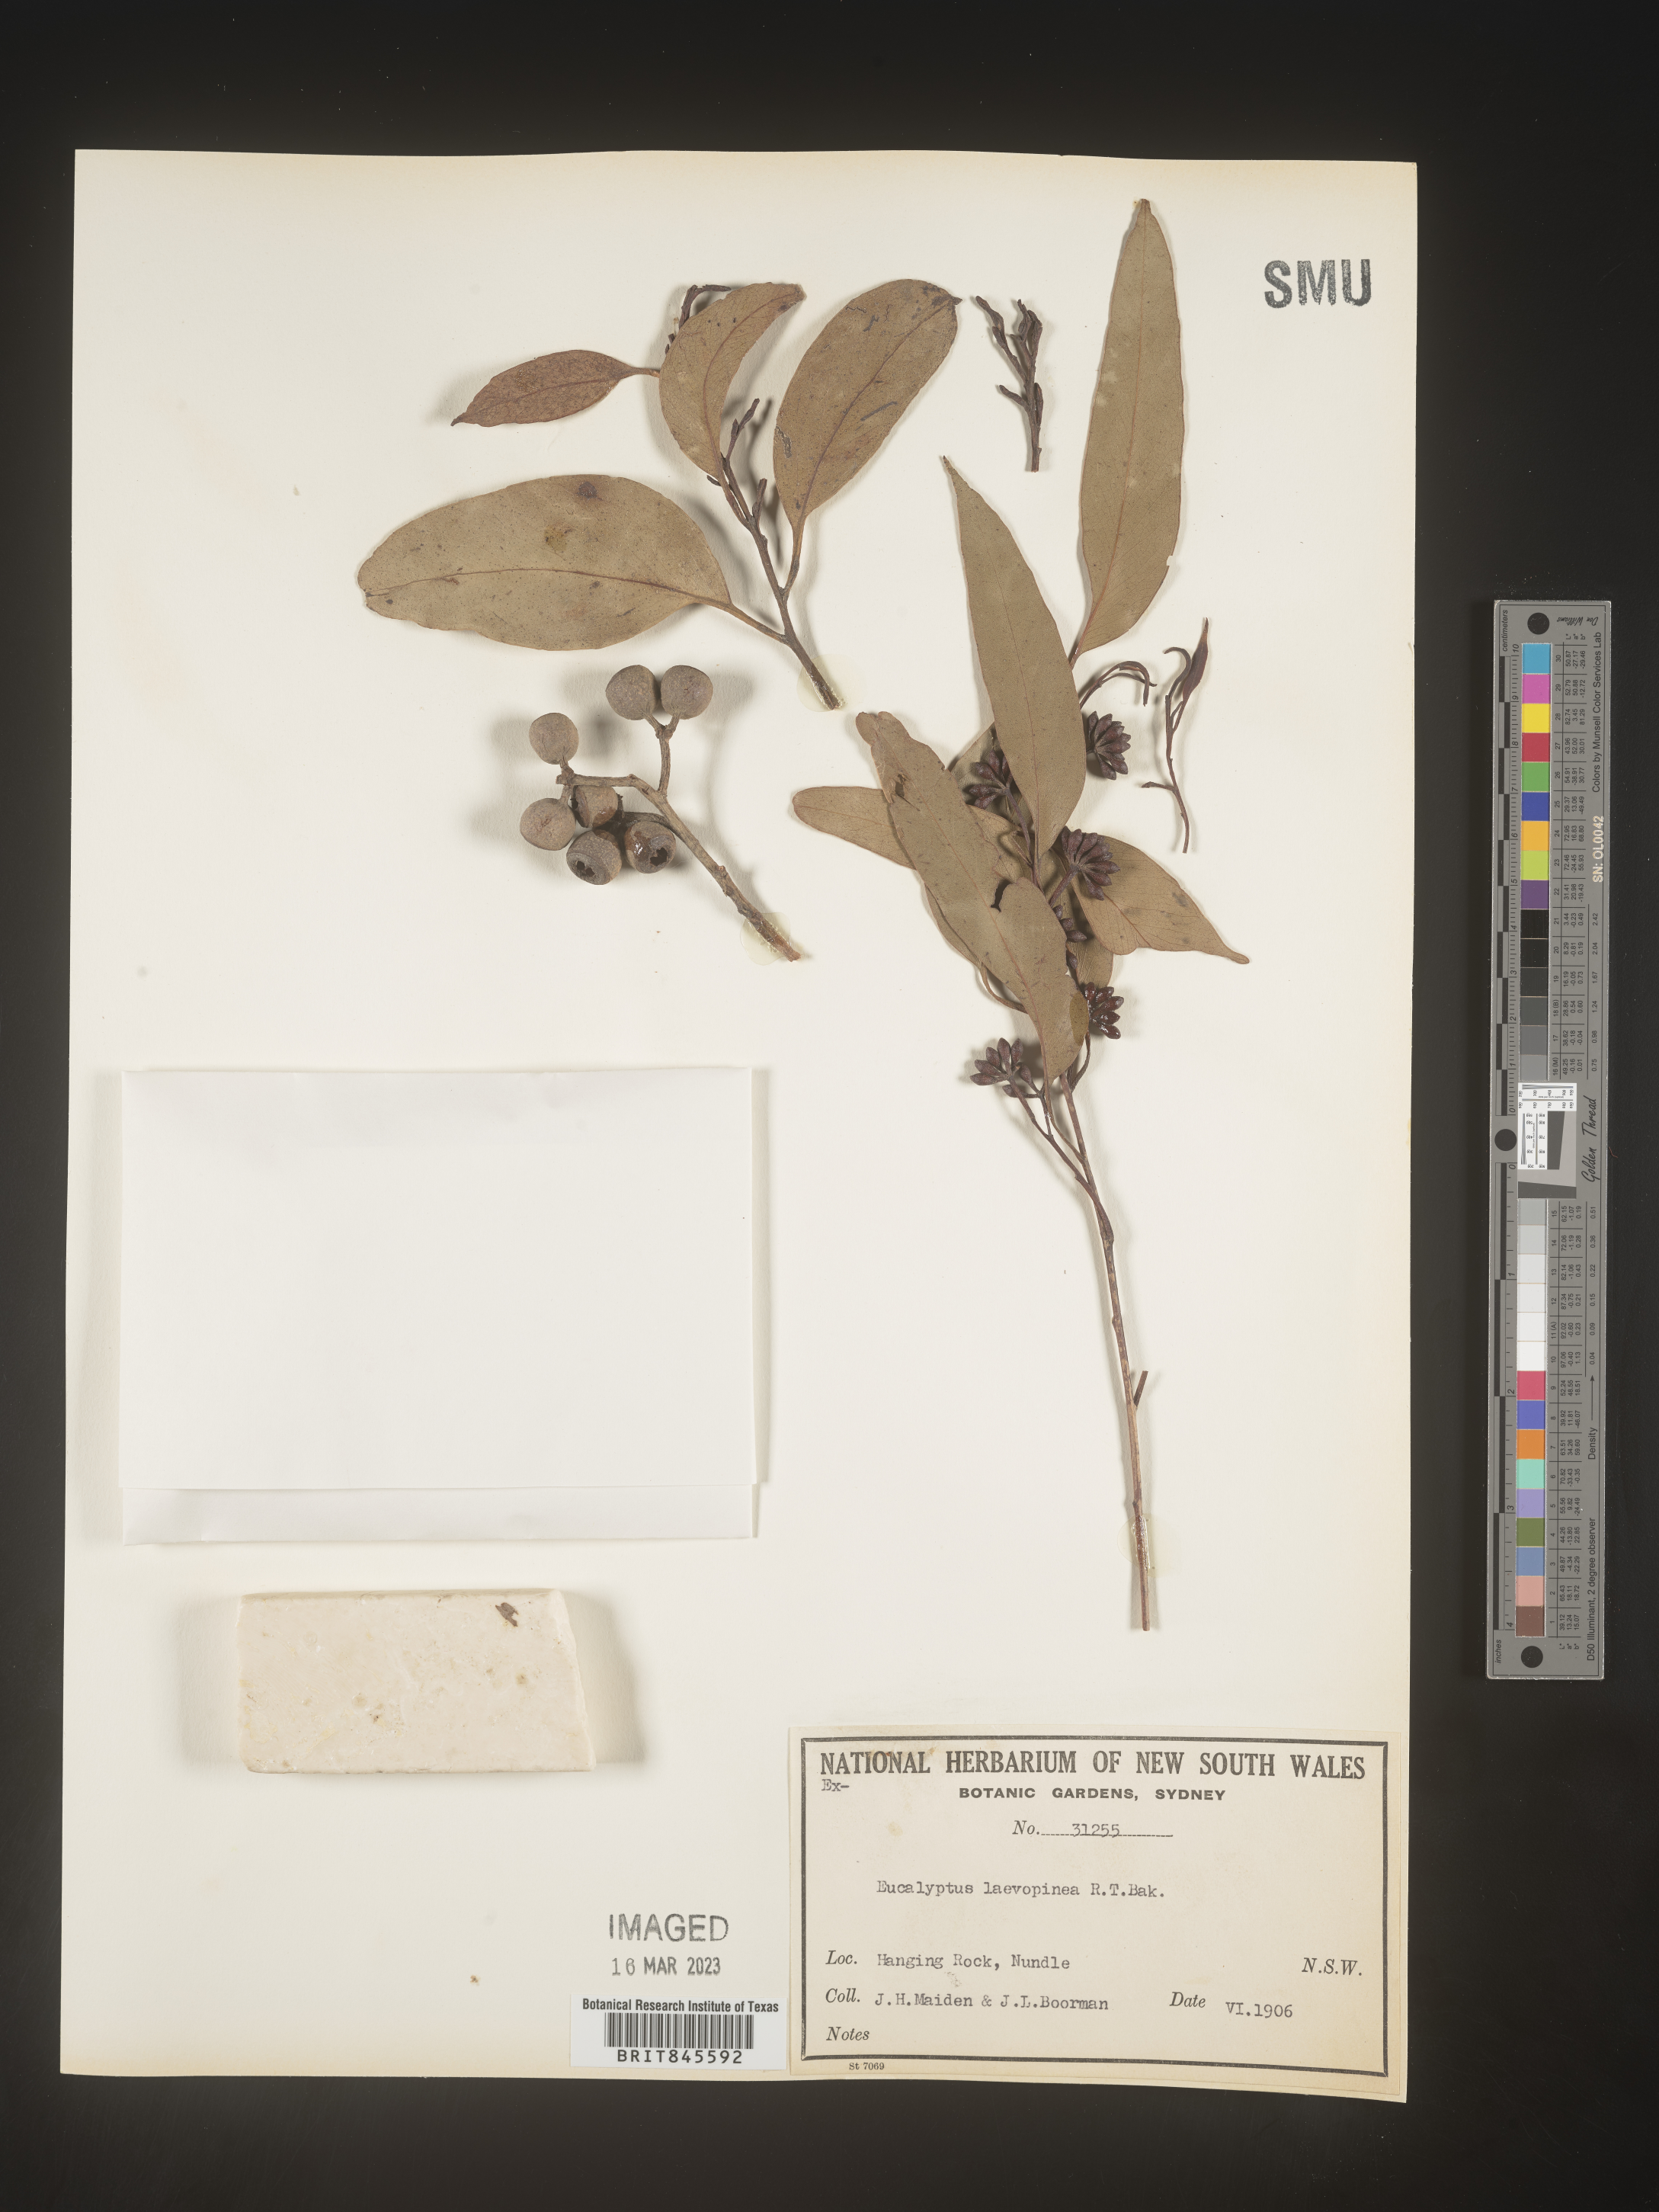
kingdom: Plantae
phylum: Tracheophyta
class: Magnoliopsida
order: Myrtales
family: Myrtaceae
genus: Eucalyptus
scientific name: Eucalyptus
